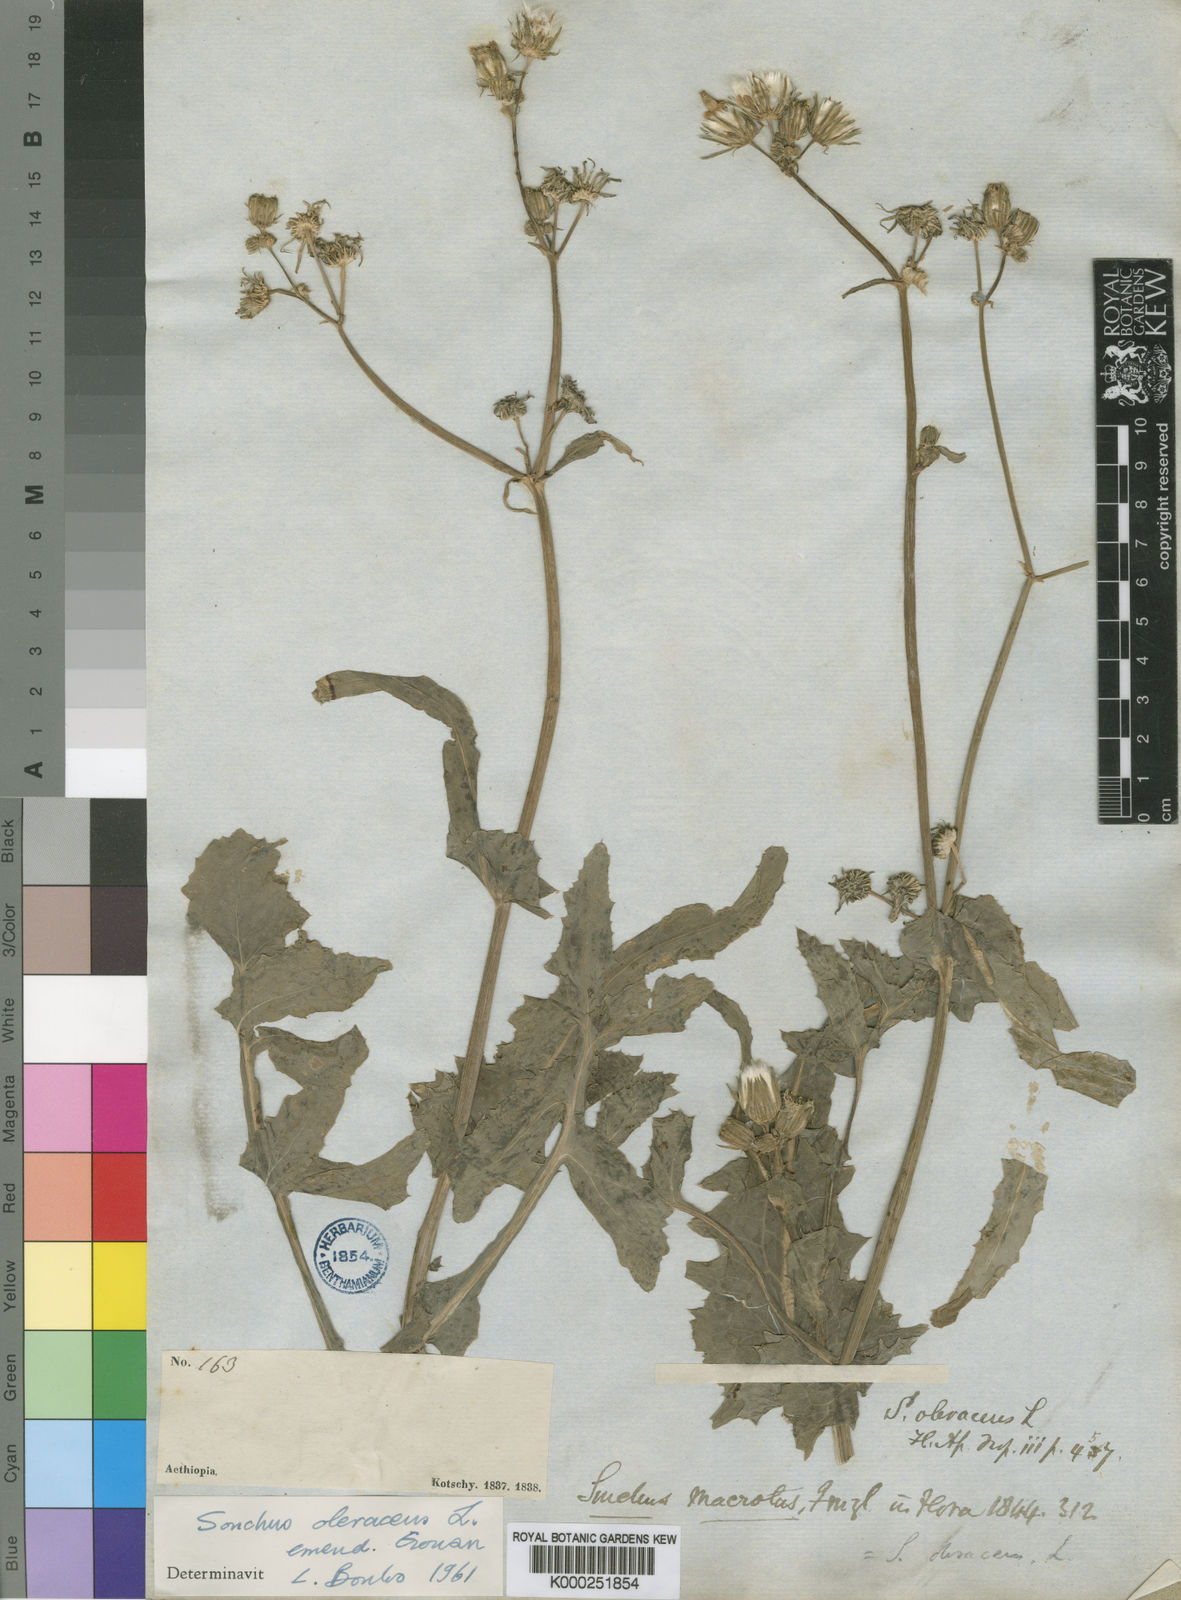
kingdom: Plantae
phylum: Tracheophyta
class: Magnoliopsida
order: Asterales
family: Asteraceae
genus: Sonchus
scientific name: Sonchus oleraceus
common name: Common sowthistle
